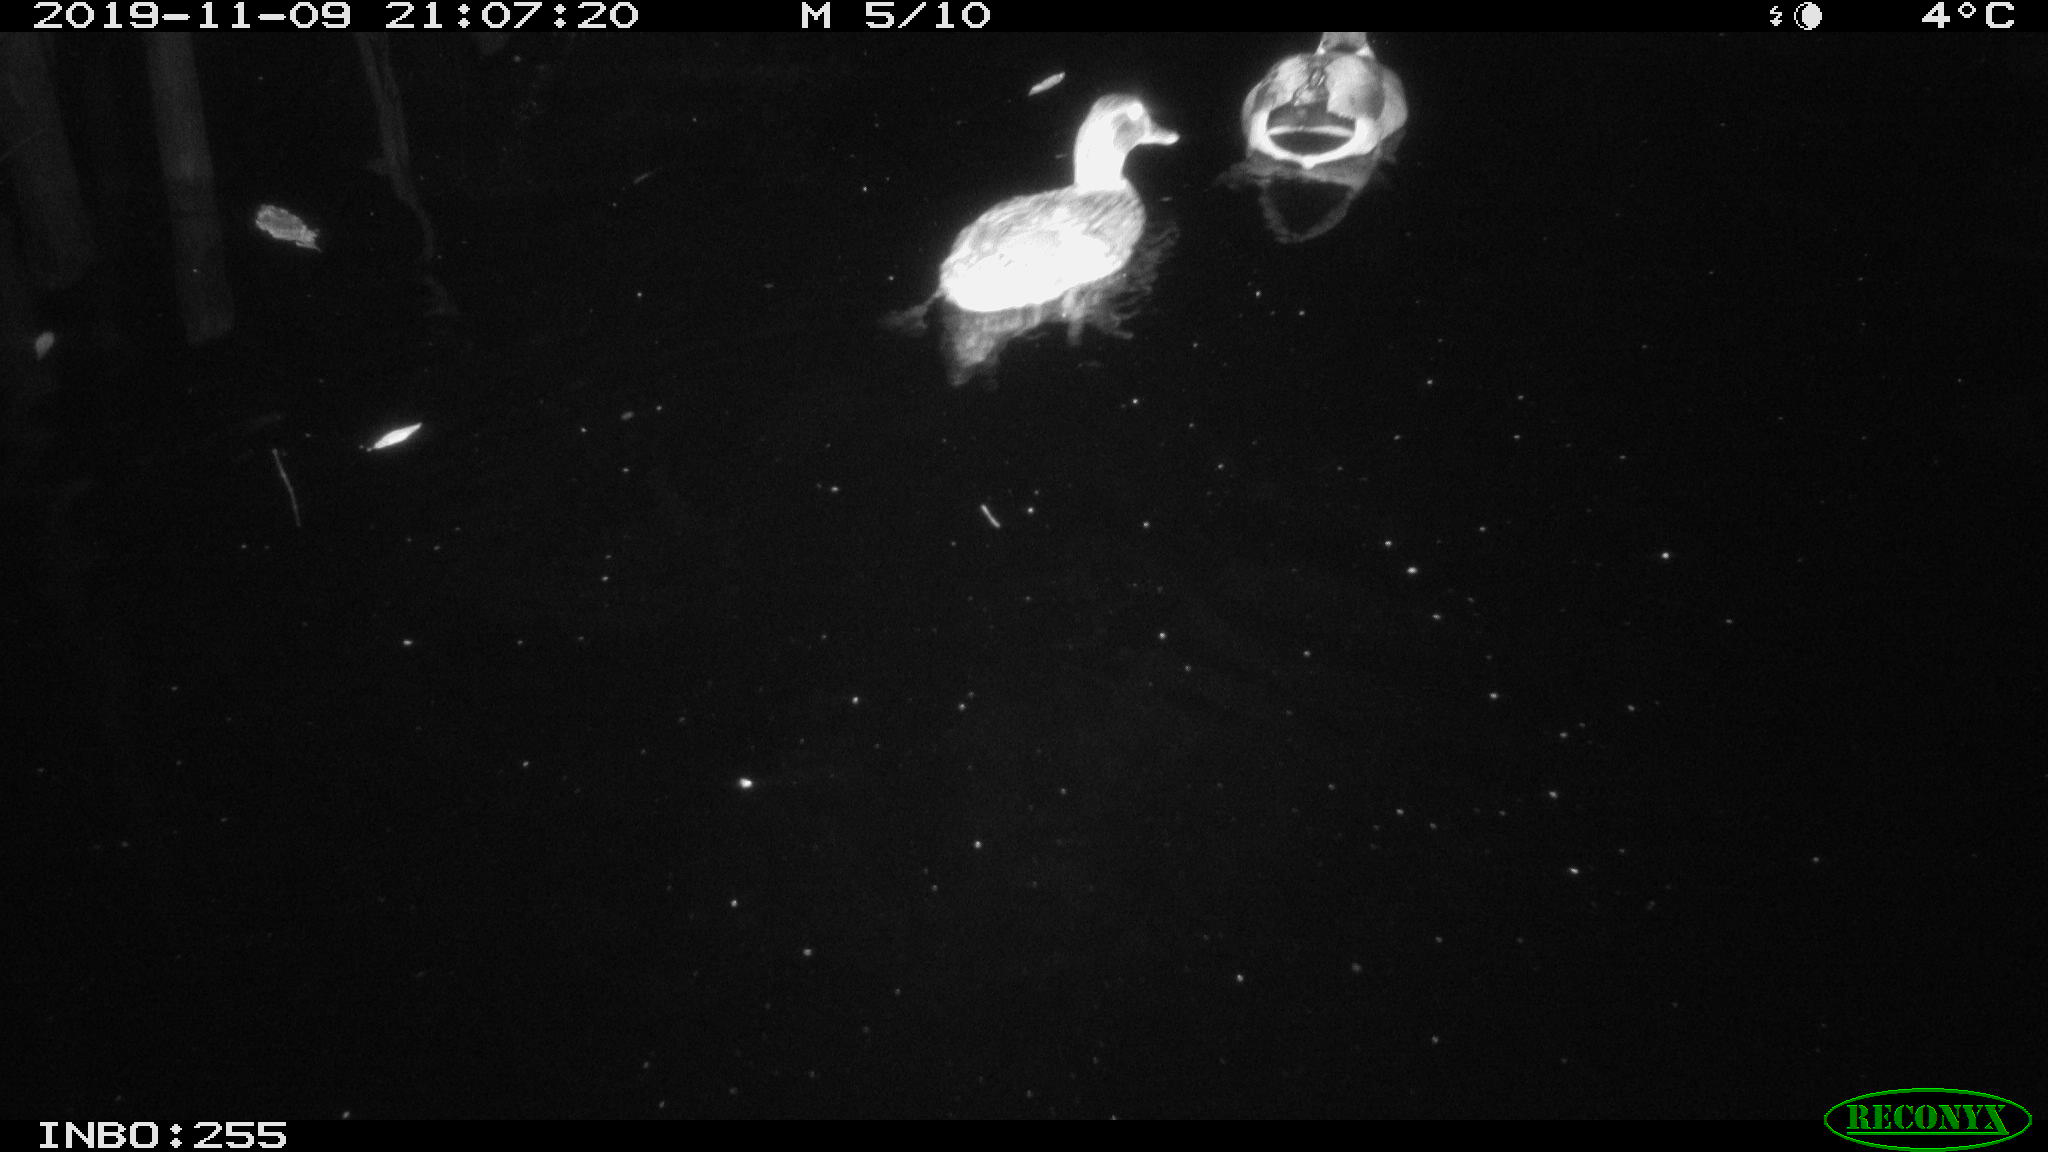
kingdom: Animalia
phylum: Chordata
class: Aves
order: Anseriformes
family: Anatidae
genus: Anas
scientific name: Anas platyrhynchos
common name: Mallard
